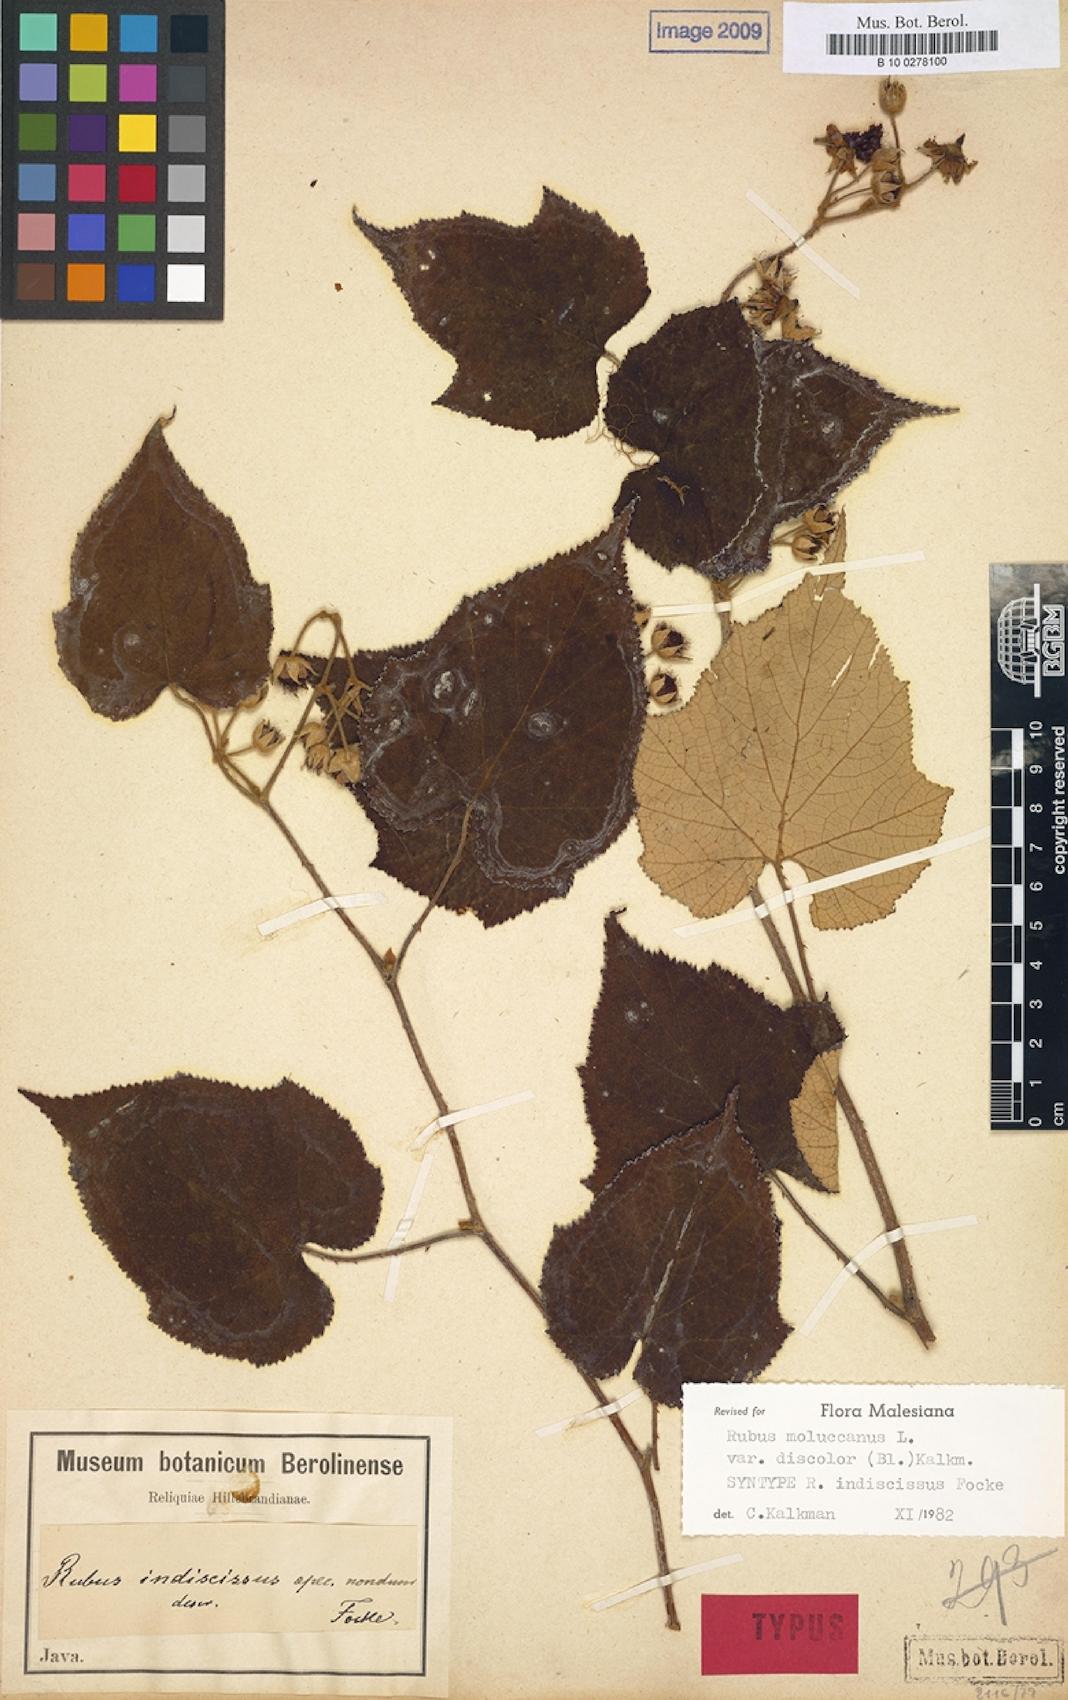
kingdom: Plantae
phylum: Tracheophyta
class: Magnoliopsida
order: Rosales
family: Rosaceae
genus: Rubus
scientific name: Rubus moluccanus
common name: Wild raspberry
